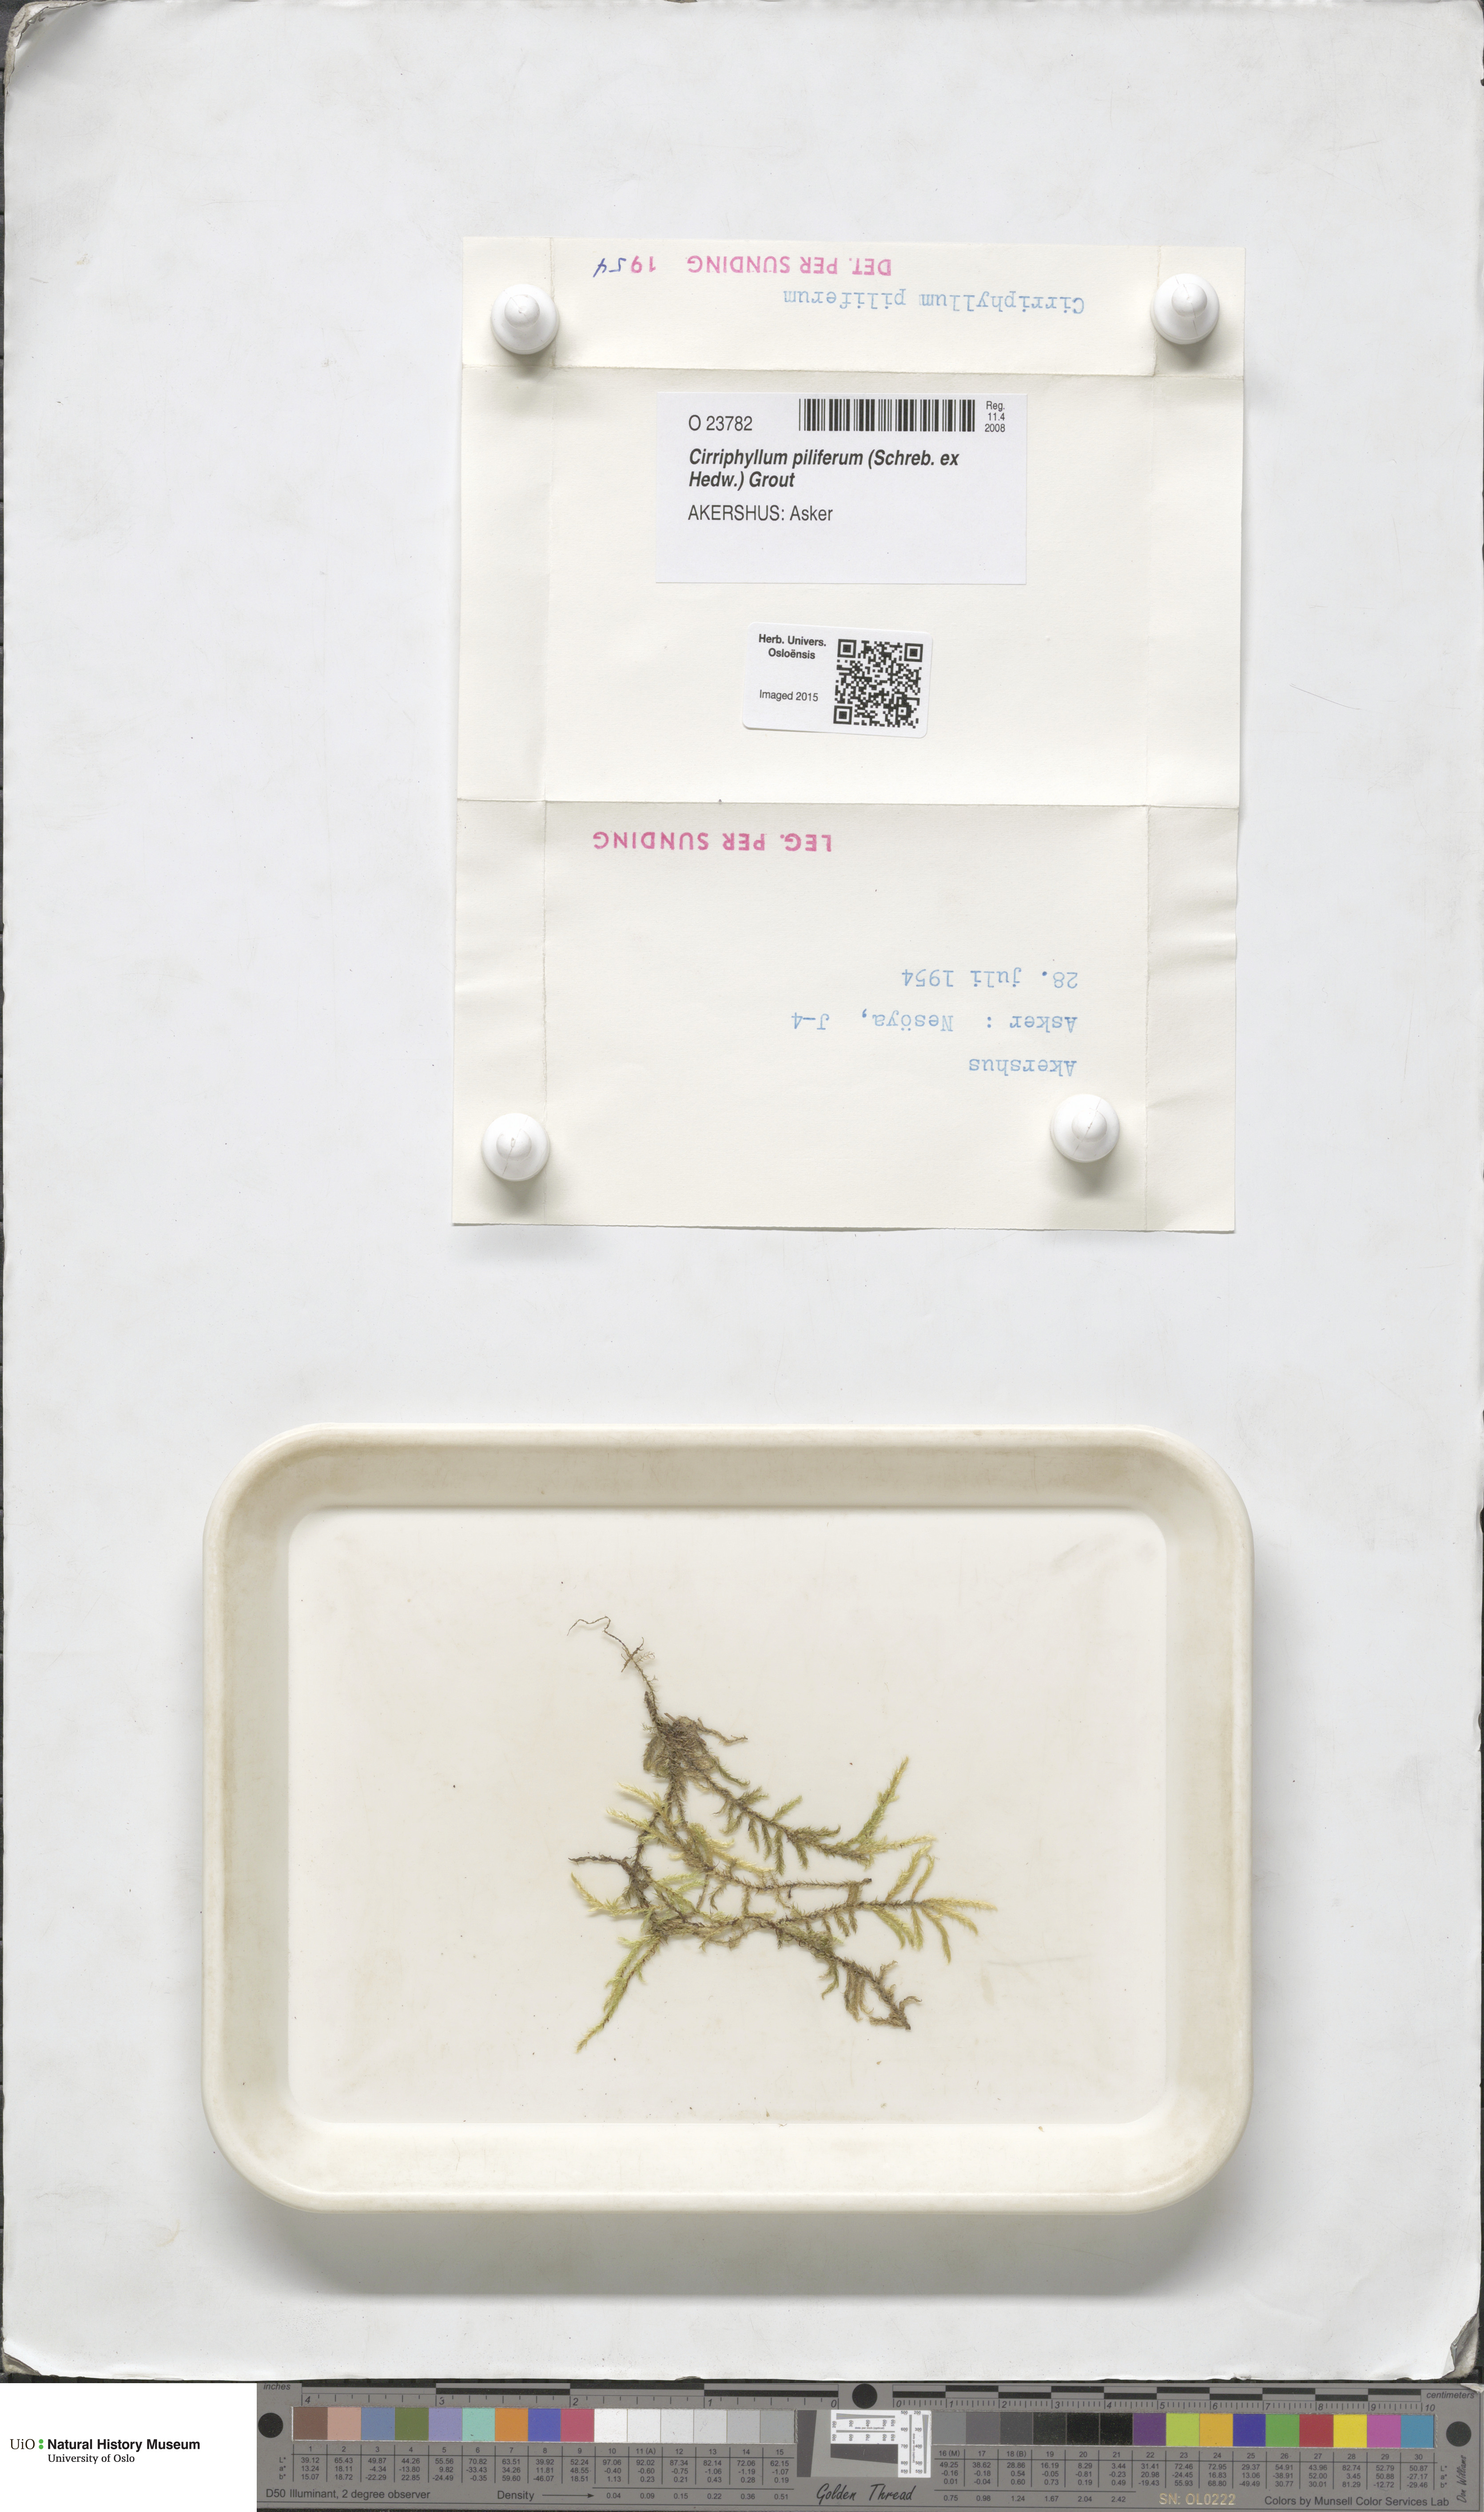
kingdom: Plantae
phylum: Bryophyta
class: Bryopsida
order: Hypnales
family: Brachytheciaceae
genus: Cirriphyllum
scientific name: Cirriphyllum piliferum
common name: Hair-pointed moss
